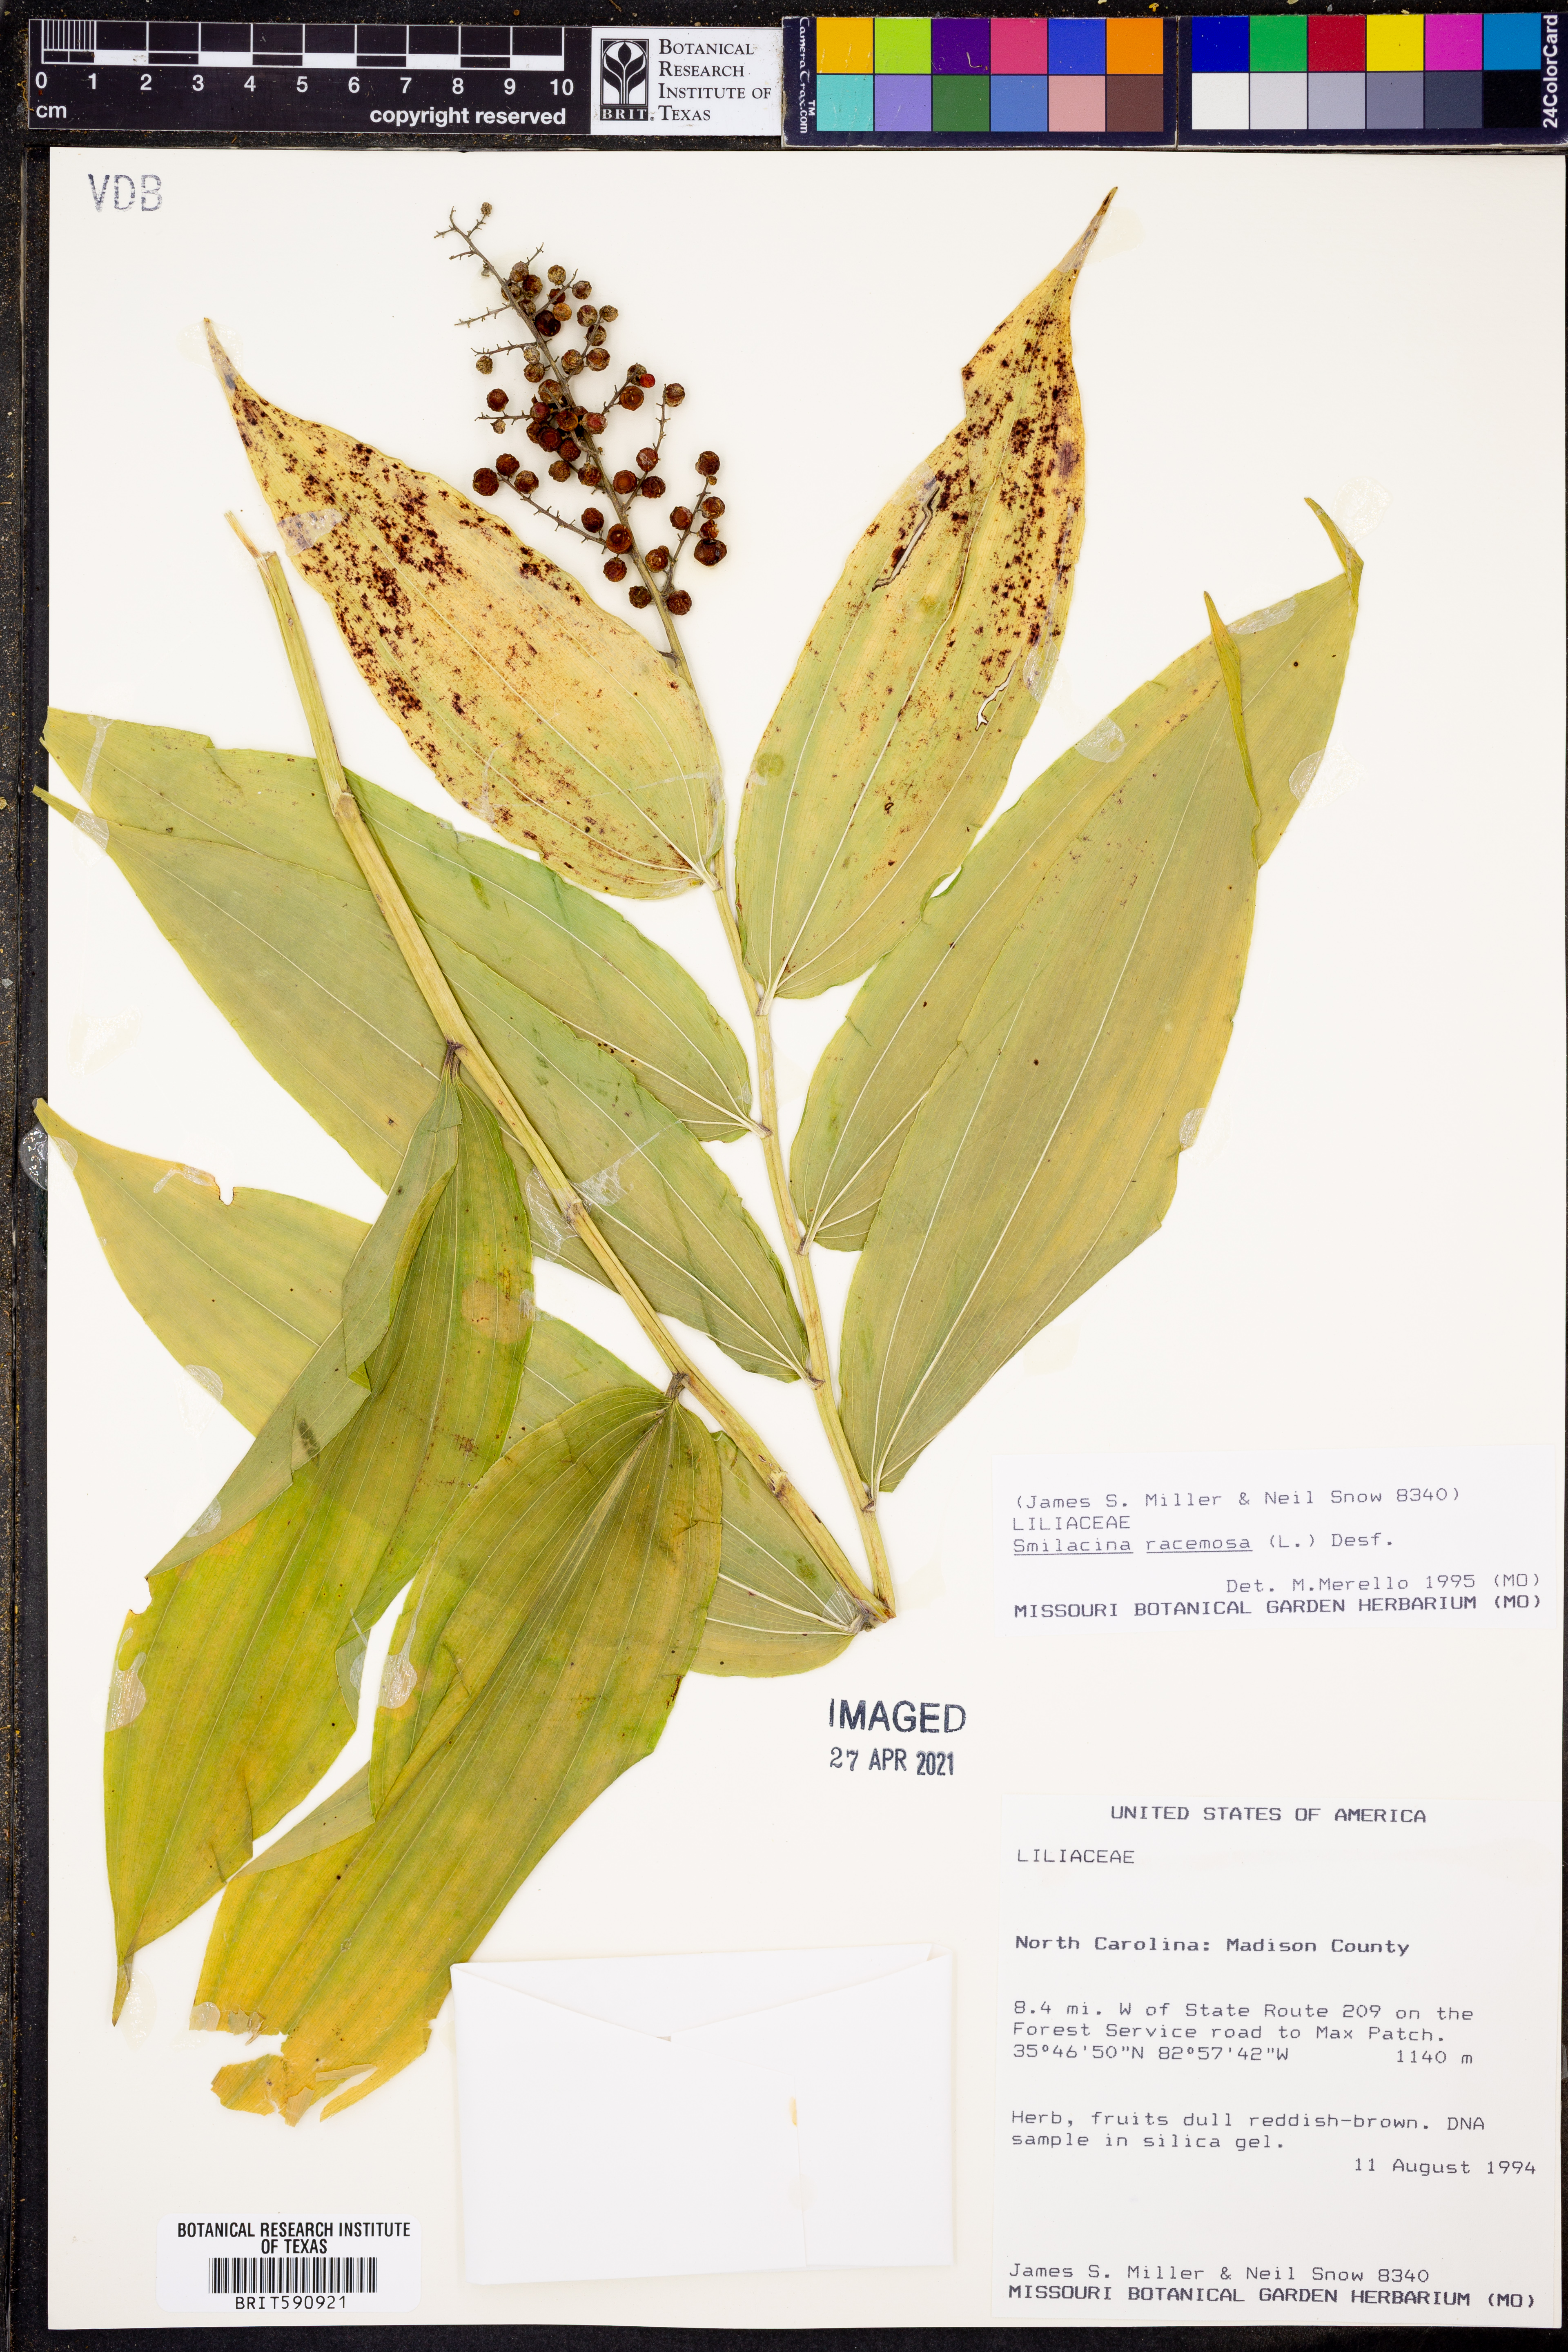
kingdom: Plantae
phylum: Tracheophyta
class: Liliopsida
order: Asparagales
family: Asparagaceae
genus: Maianthemum
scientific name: Maianthemum racemosum
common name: False spikenard
